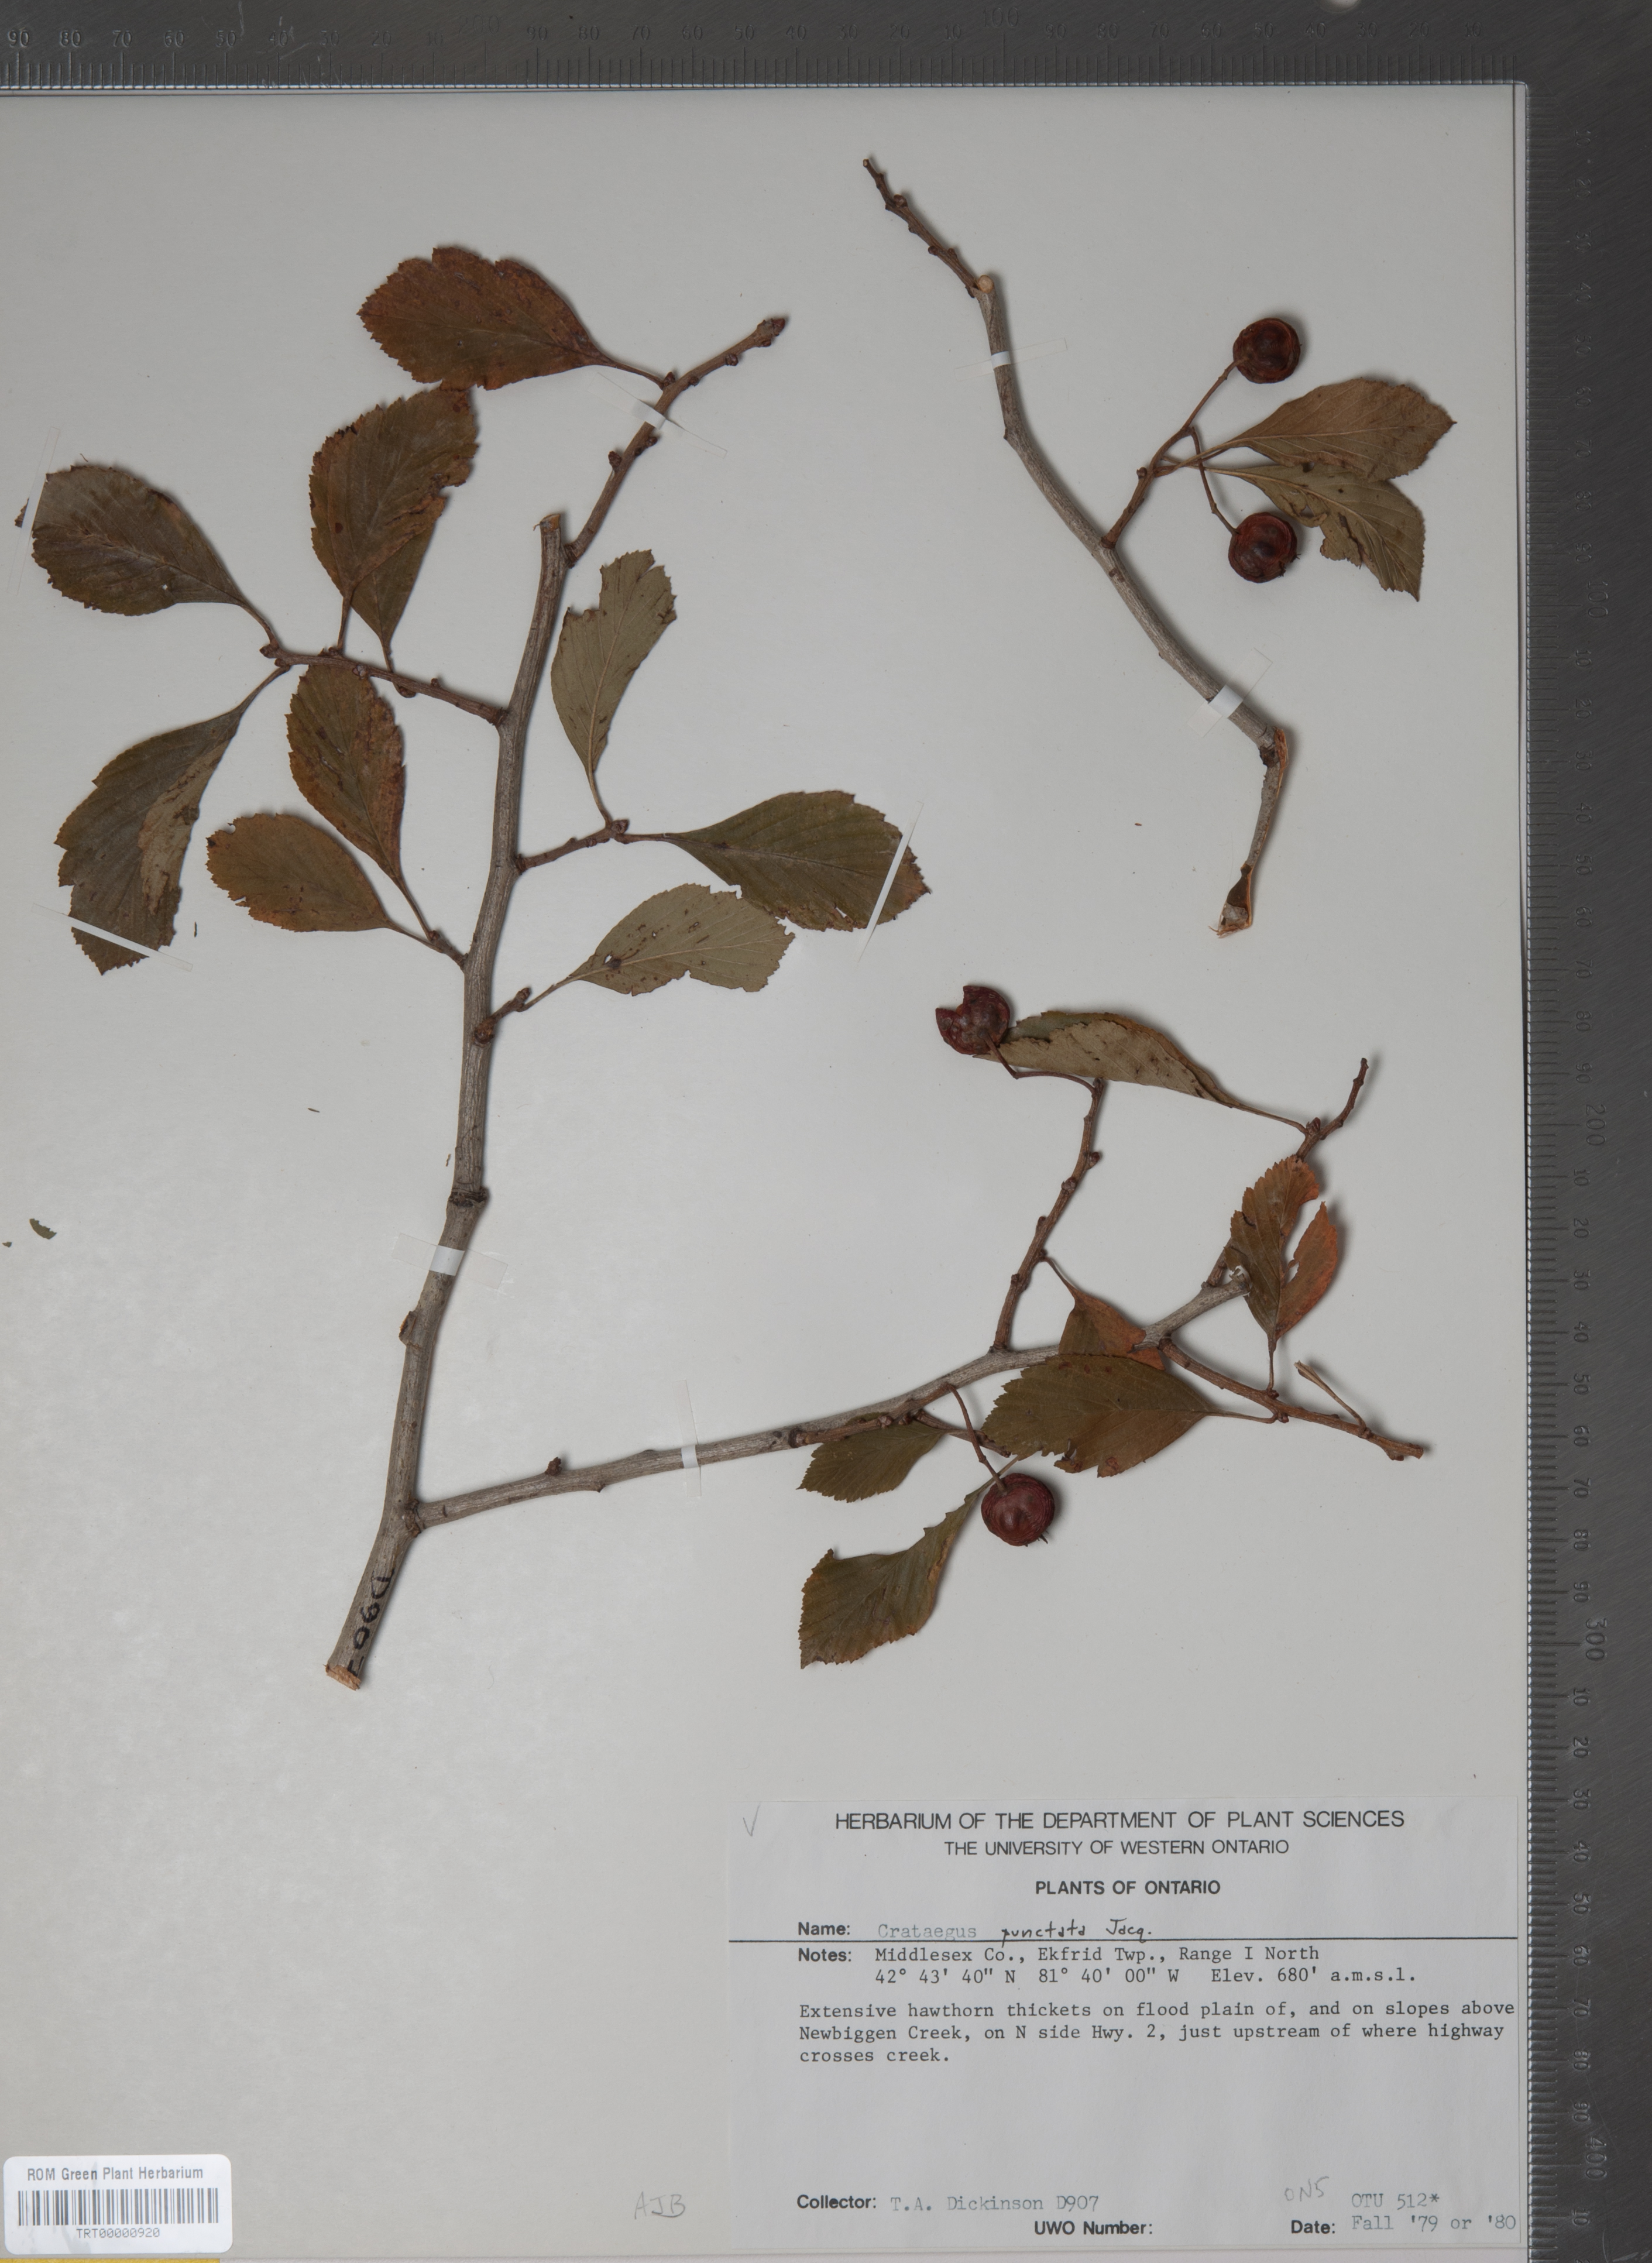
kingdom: Plantae
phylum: Tracheophyta
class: Magnoliopsida
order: Rosales
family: Rosaceae
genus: Crataegus
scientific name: Crataegus punctata
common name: Dotted hawthorn
